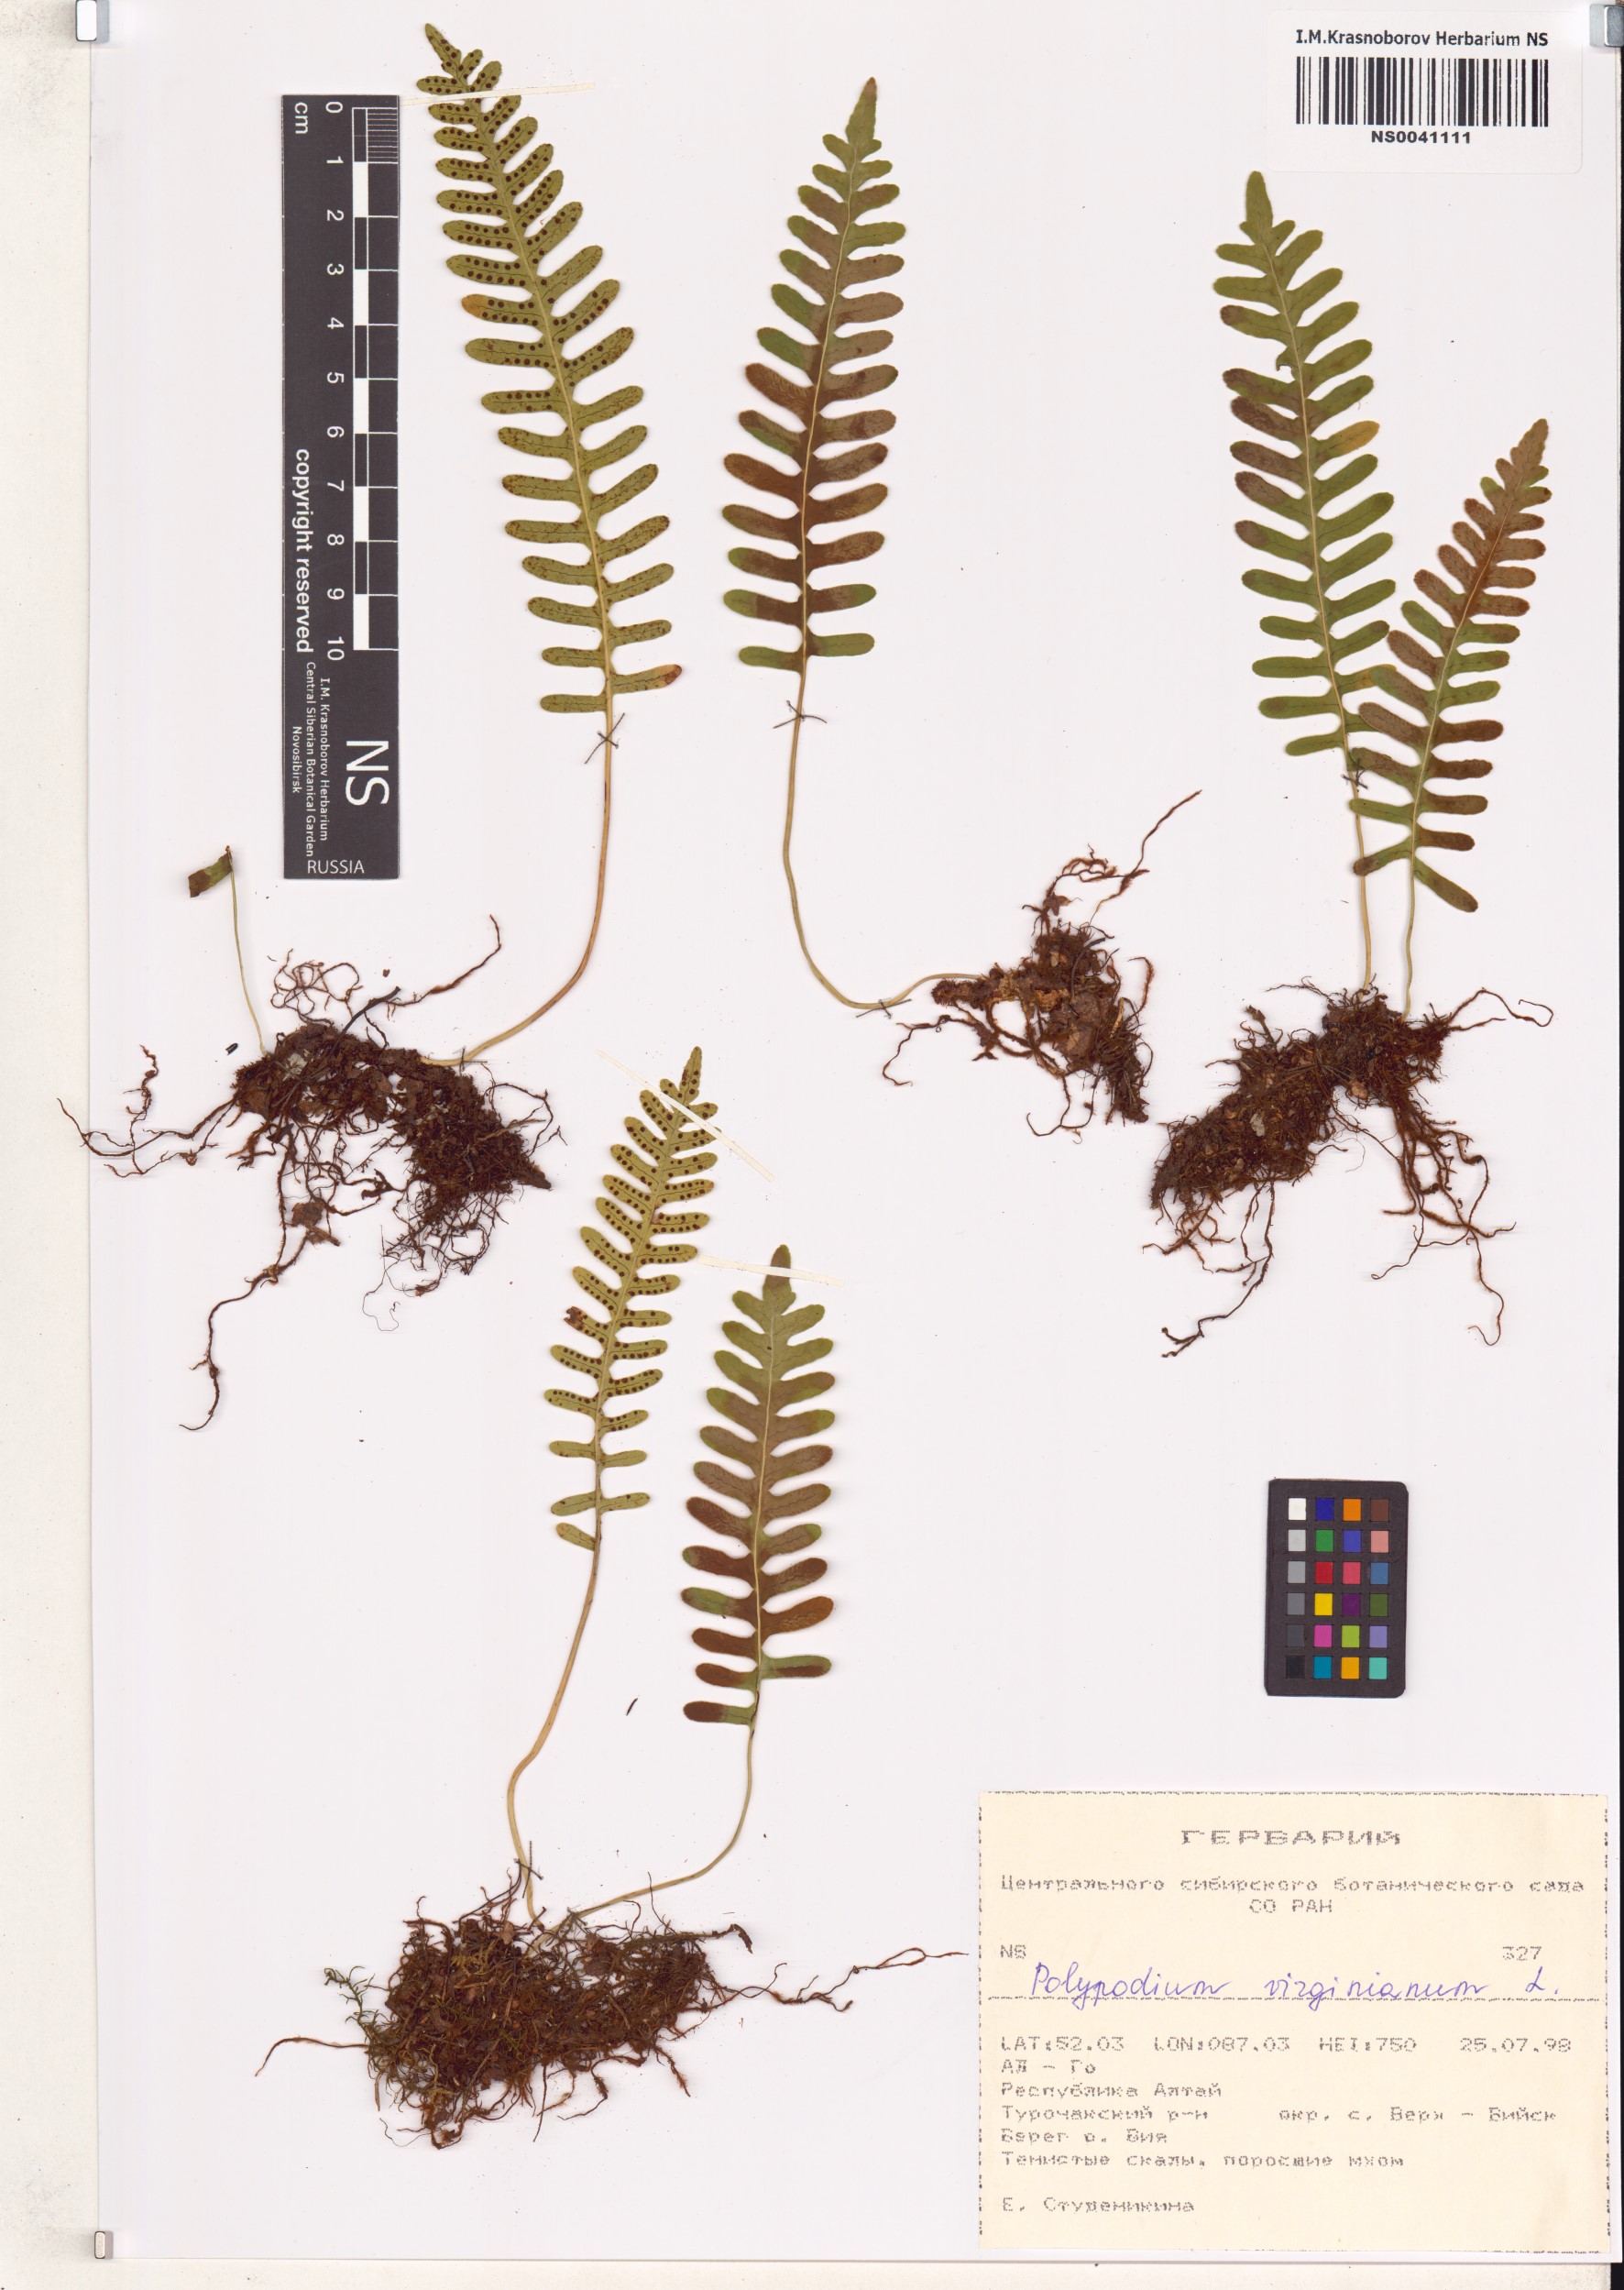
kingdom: Plantae
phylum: Tracheophyta
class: Polypodiopsida
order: Polypodiales
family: Polypodiaceae
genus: Polypodium
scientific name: Polypodium virginianum
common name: American wall fern
